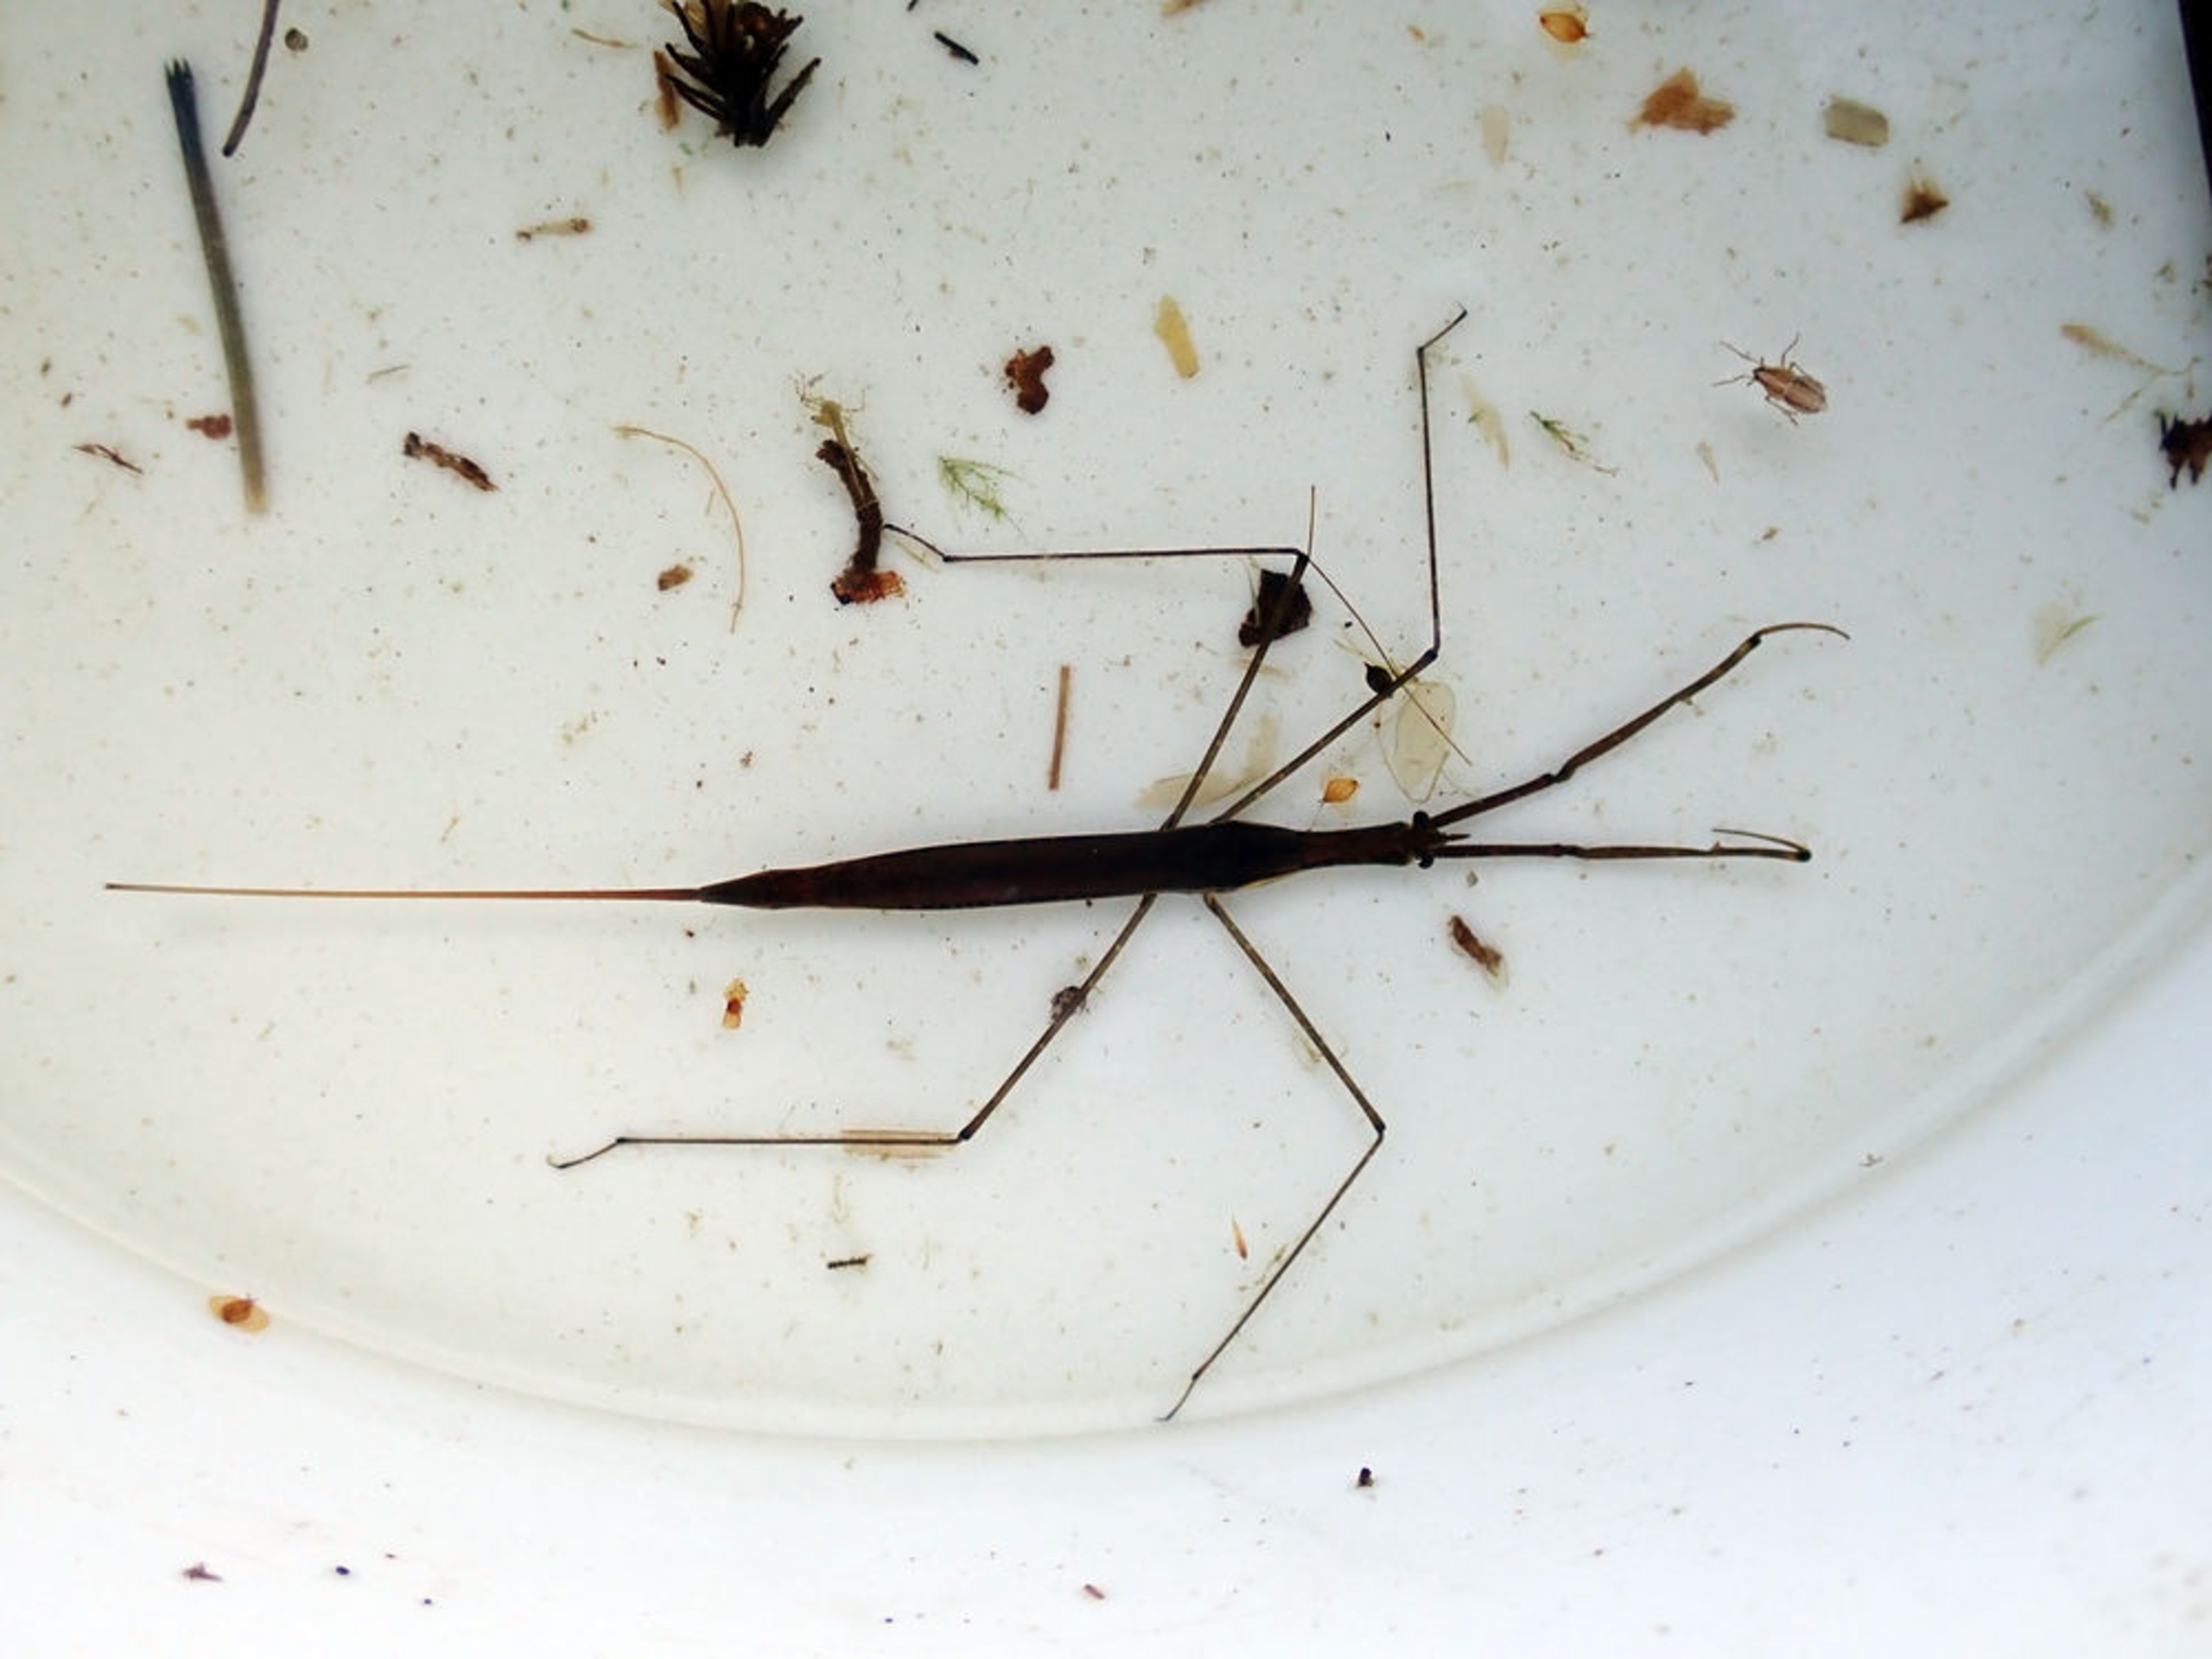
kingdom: Animalia
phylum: Arthropoda
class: Insecta
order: Hemiptera
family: Nepidae
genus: Ranatra
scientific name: Ranatra linearis
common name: Stavtæge
